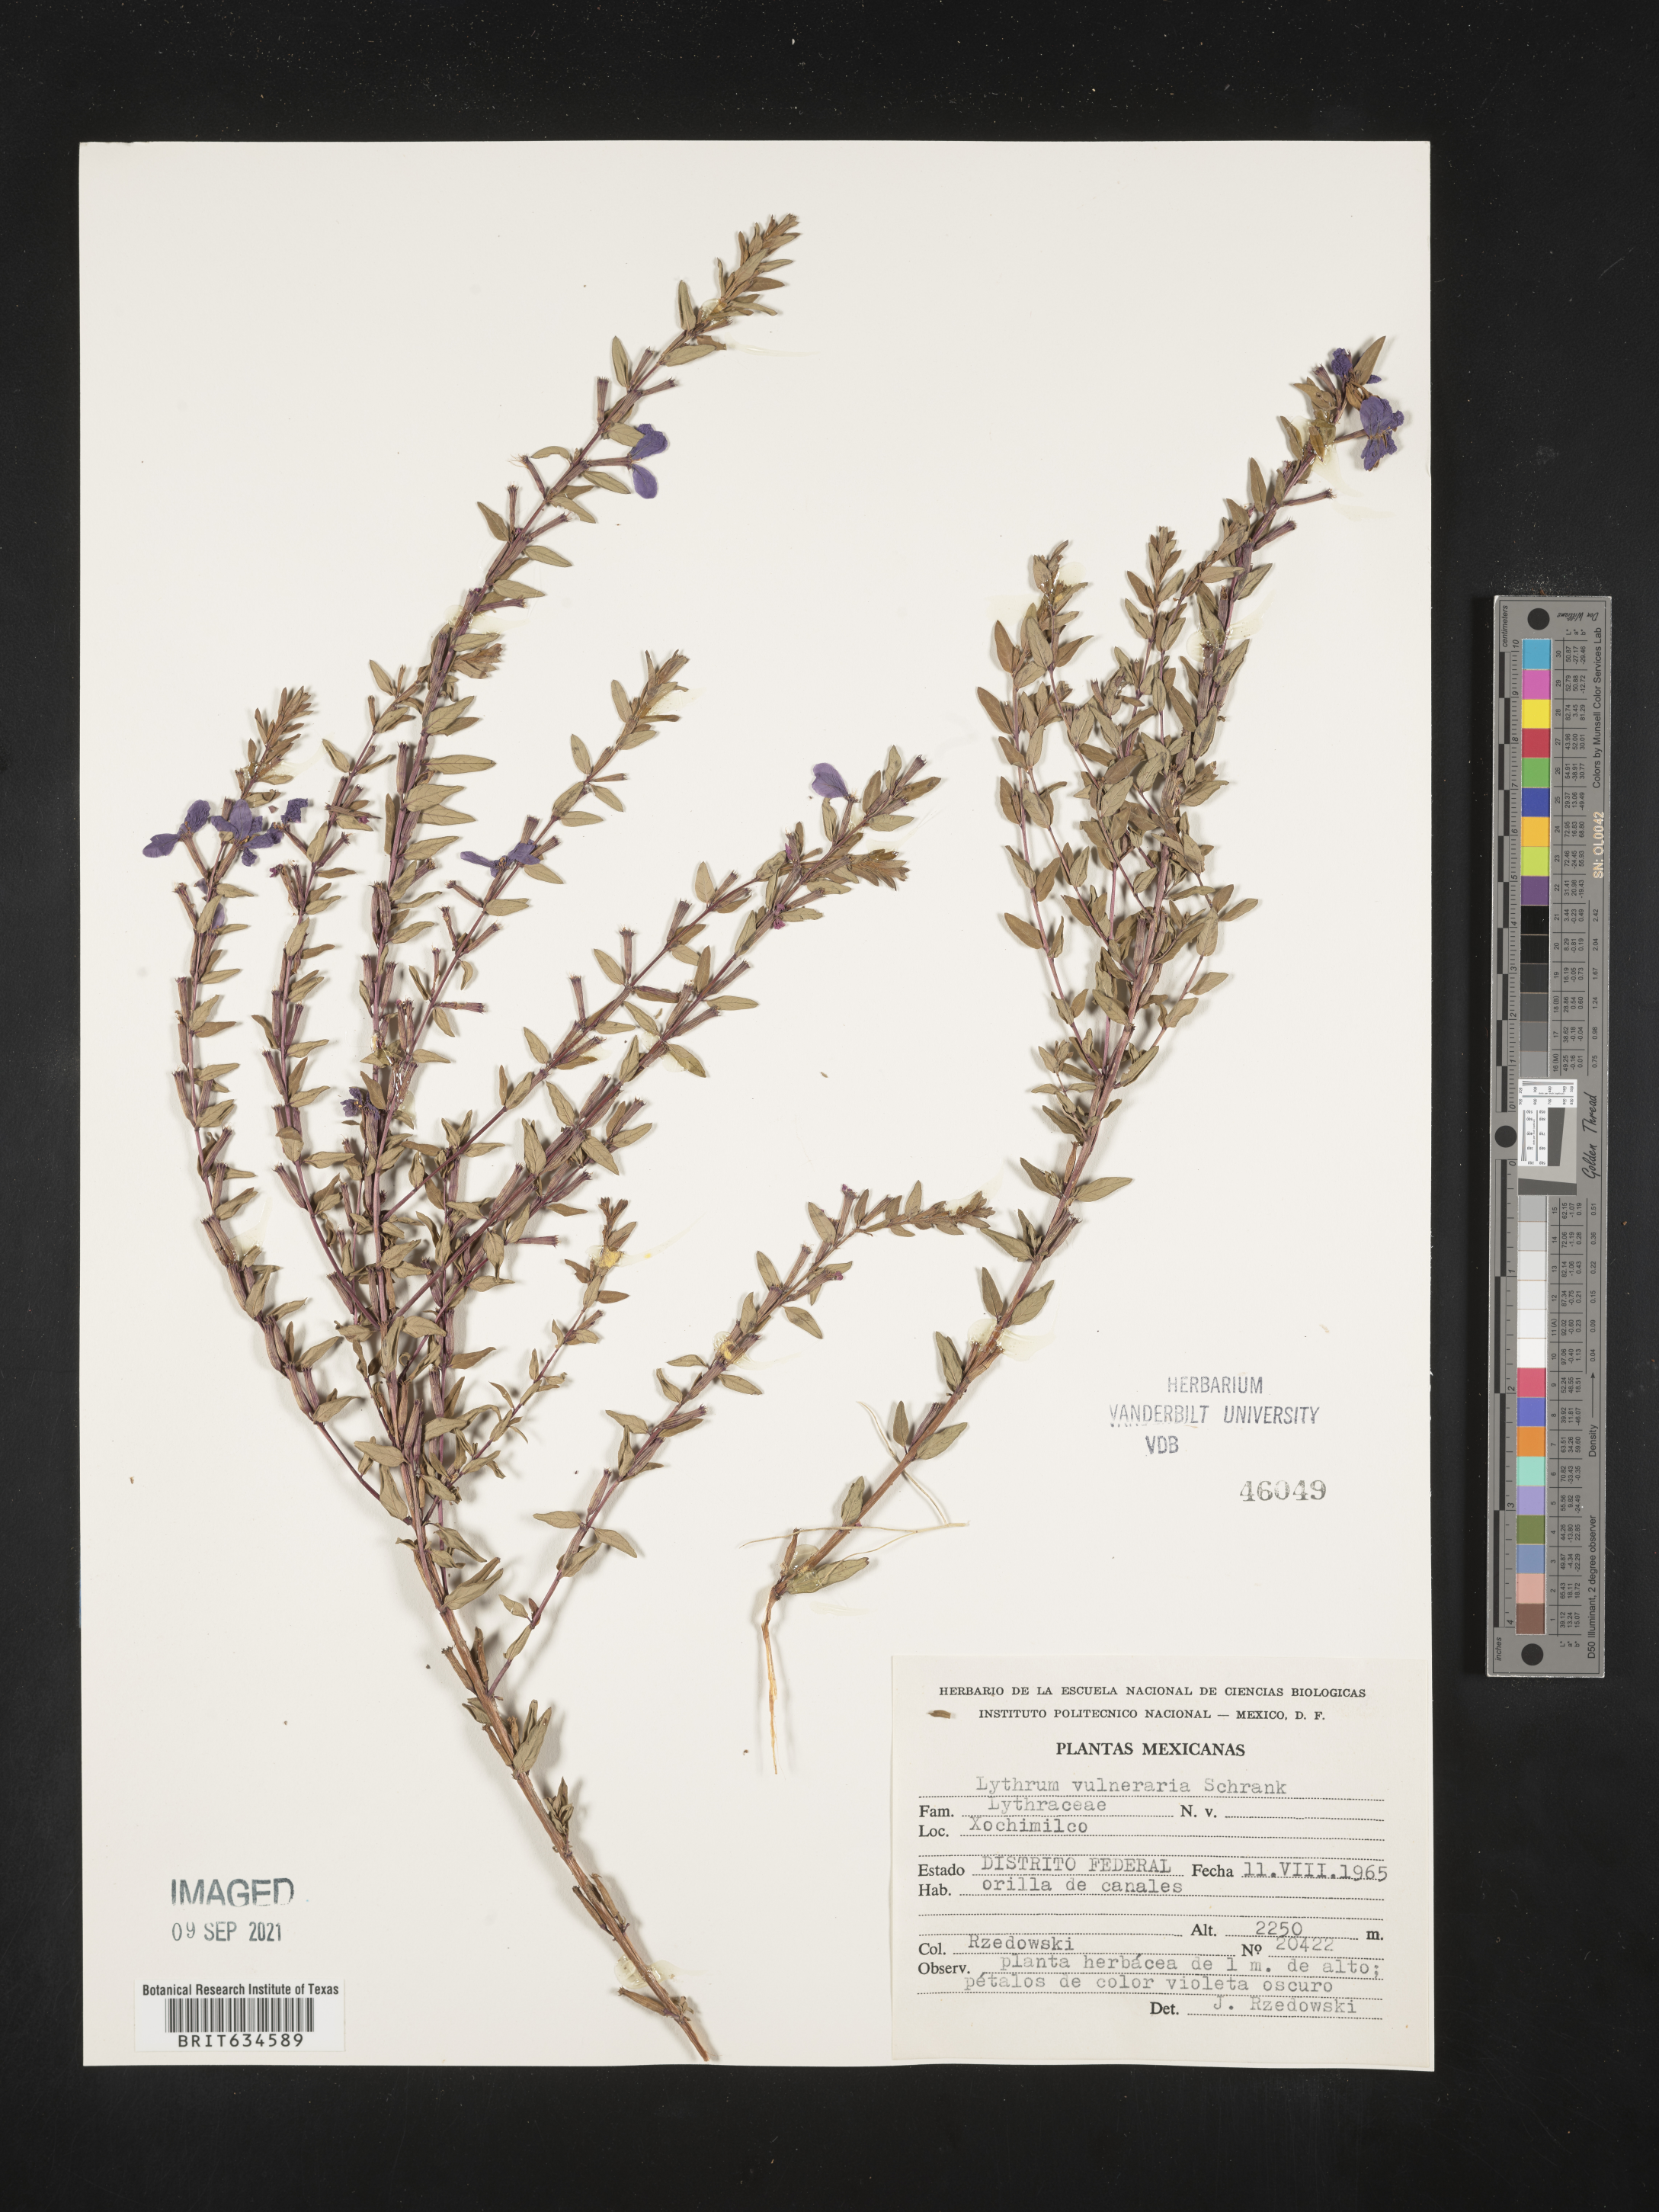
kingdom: Plantae
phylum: Tracheophyta
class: Magnoliopsida
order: Myrtales
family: Lythraceae
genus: Lythrum
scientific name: Lythrum
